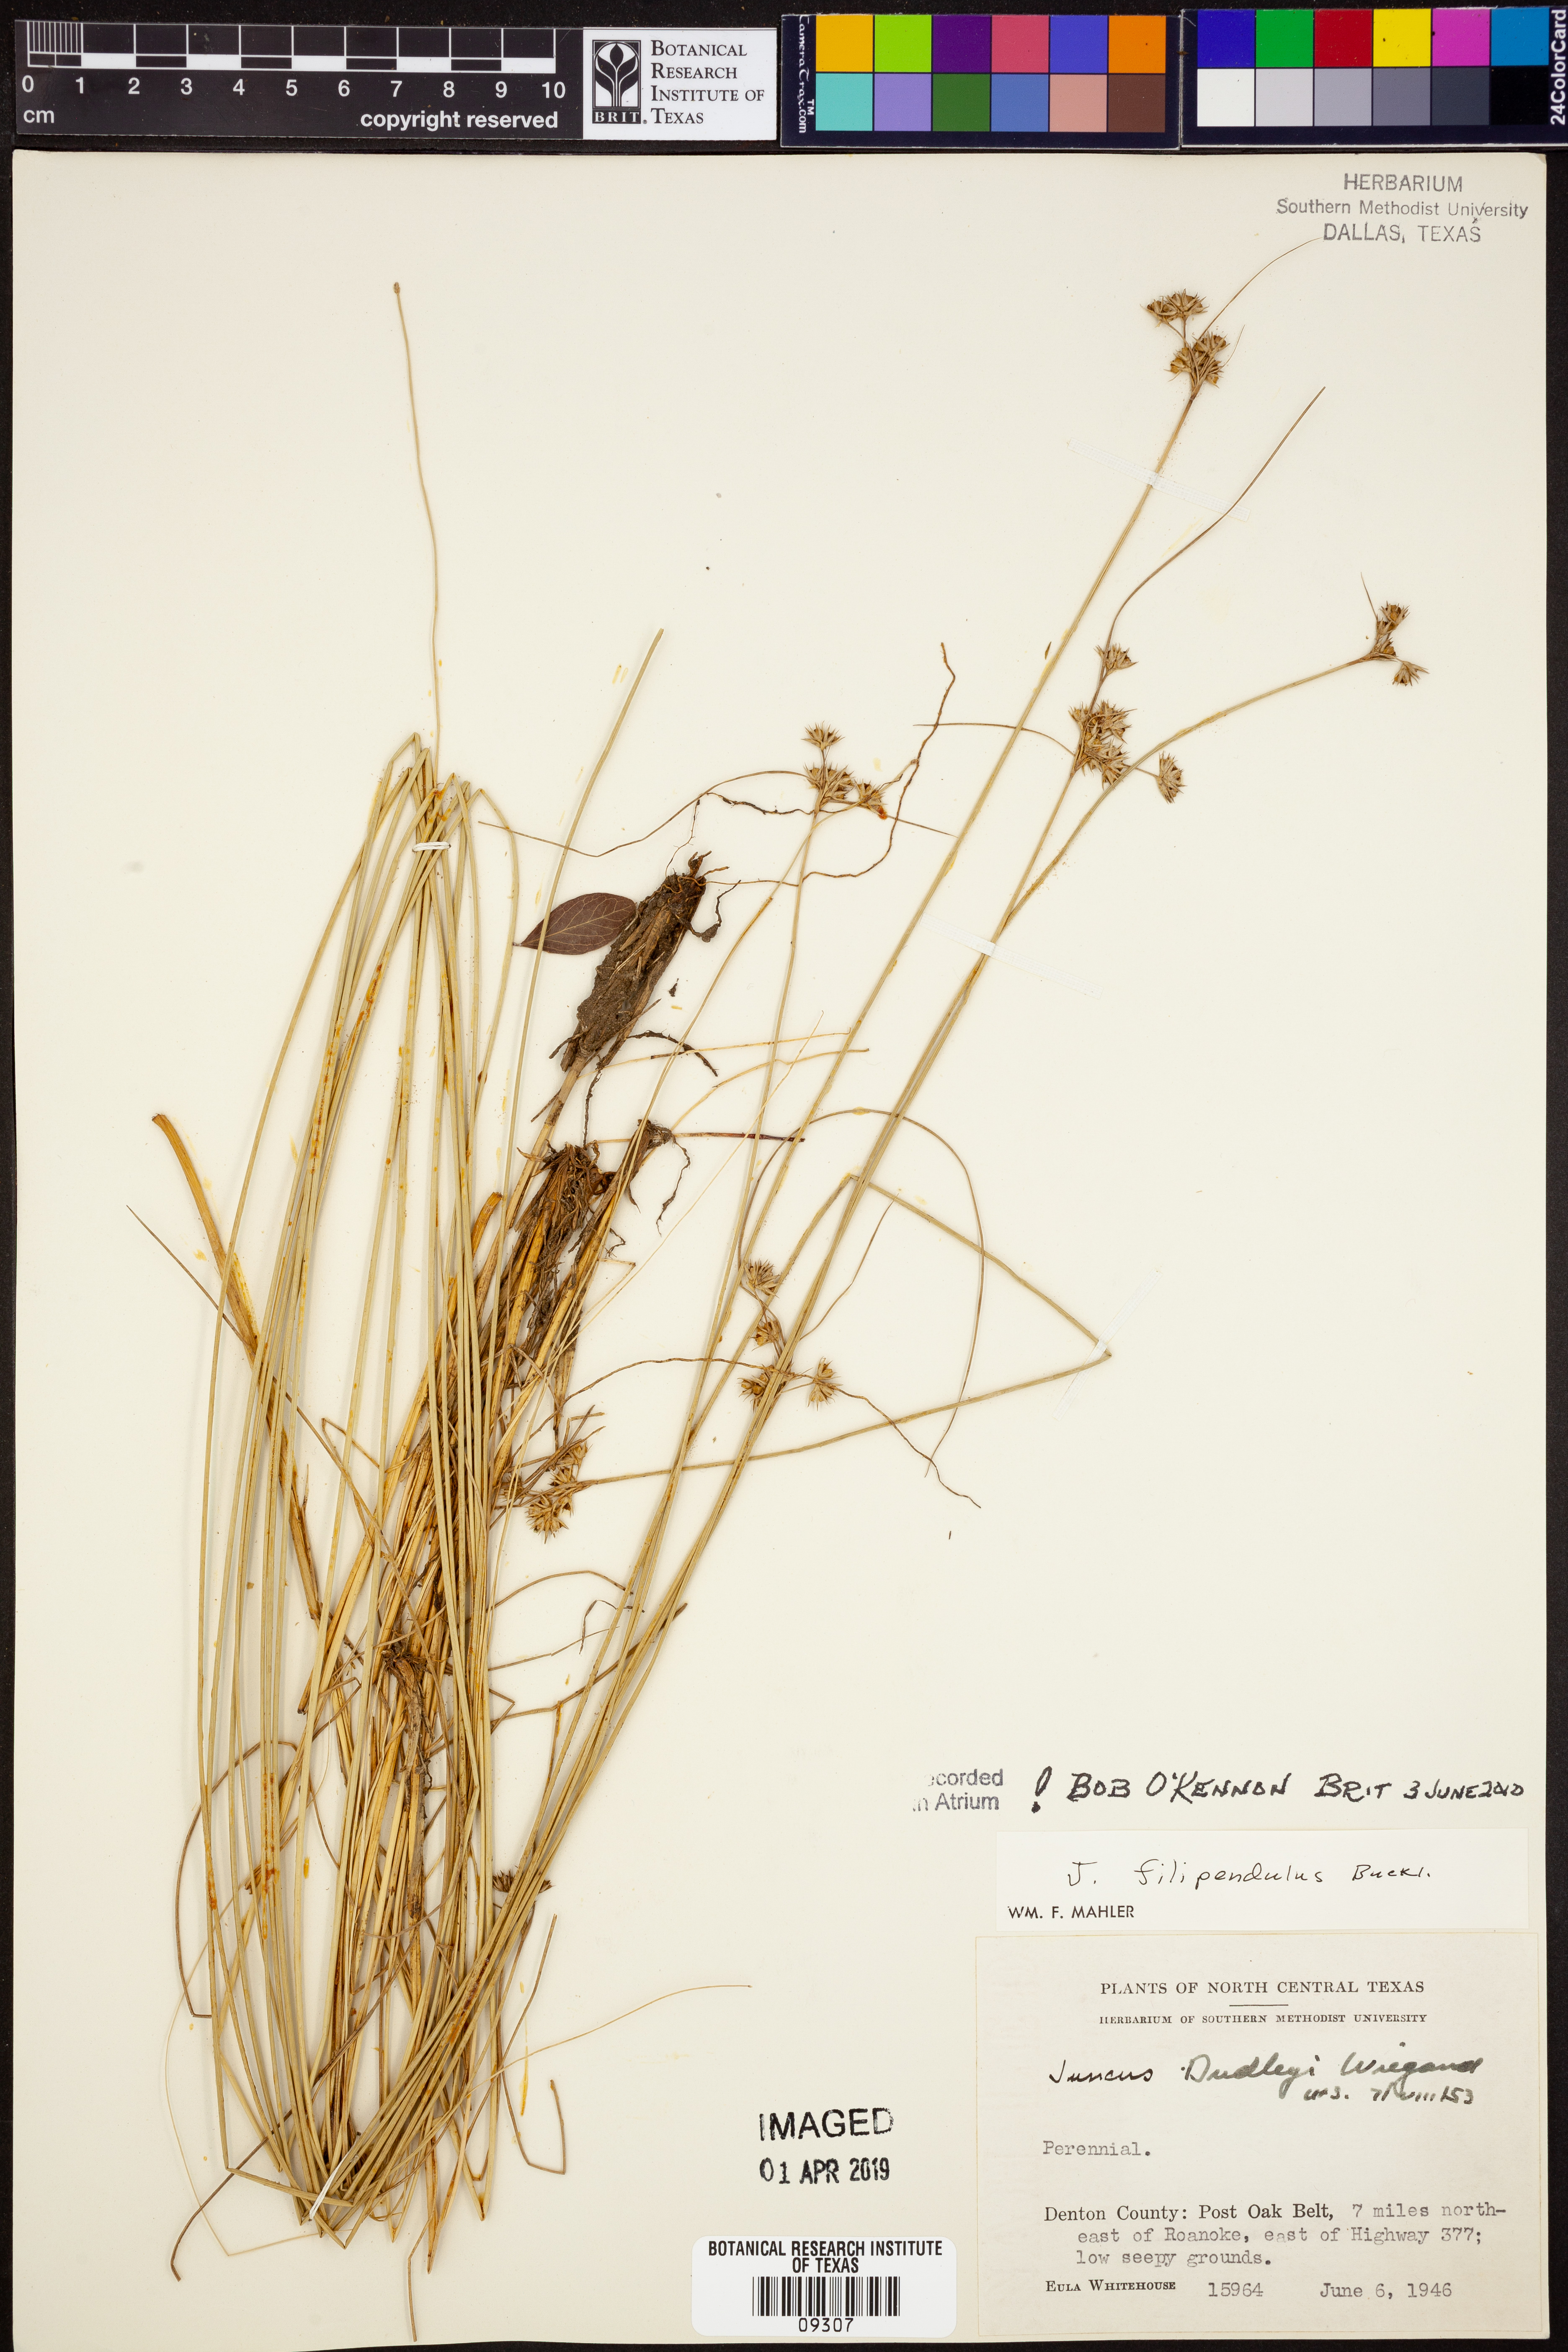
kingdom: Plantae
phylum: Tracheophyta
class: Liliopsida
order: Poales
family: Juncaceae
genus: Juncus
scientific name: Juncus filipendulus
